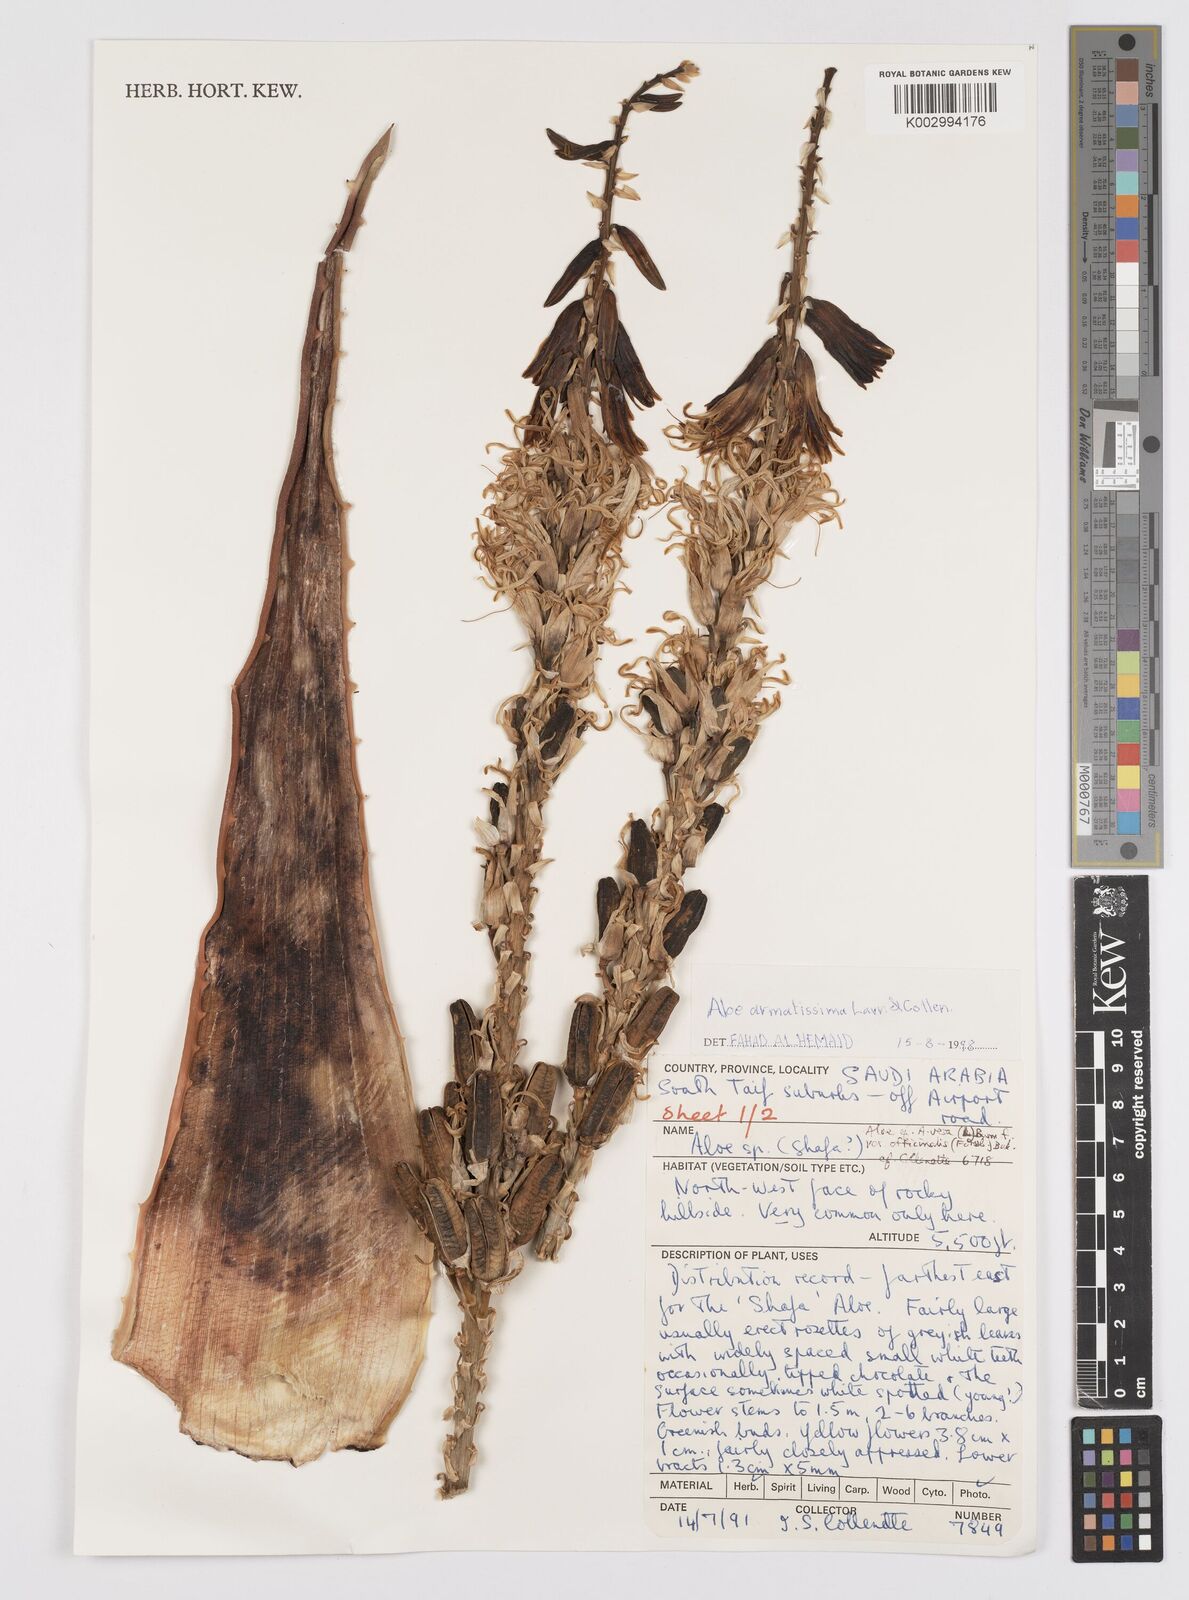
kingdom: Plantae
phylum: Tracheophyta
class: Liliopsida
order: Asparagales
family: Asphodelaceae
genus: Aloe
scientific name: Aloe armatissima
